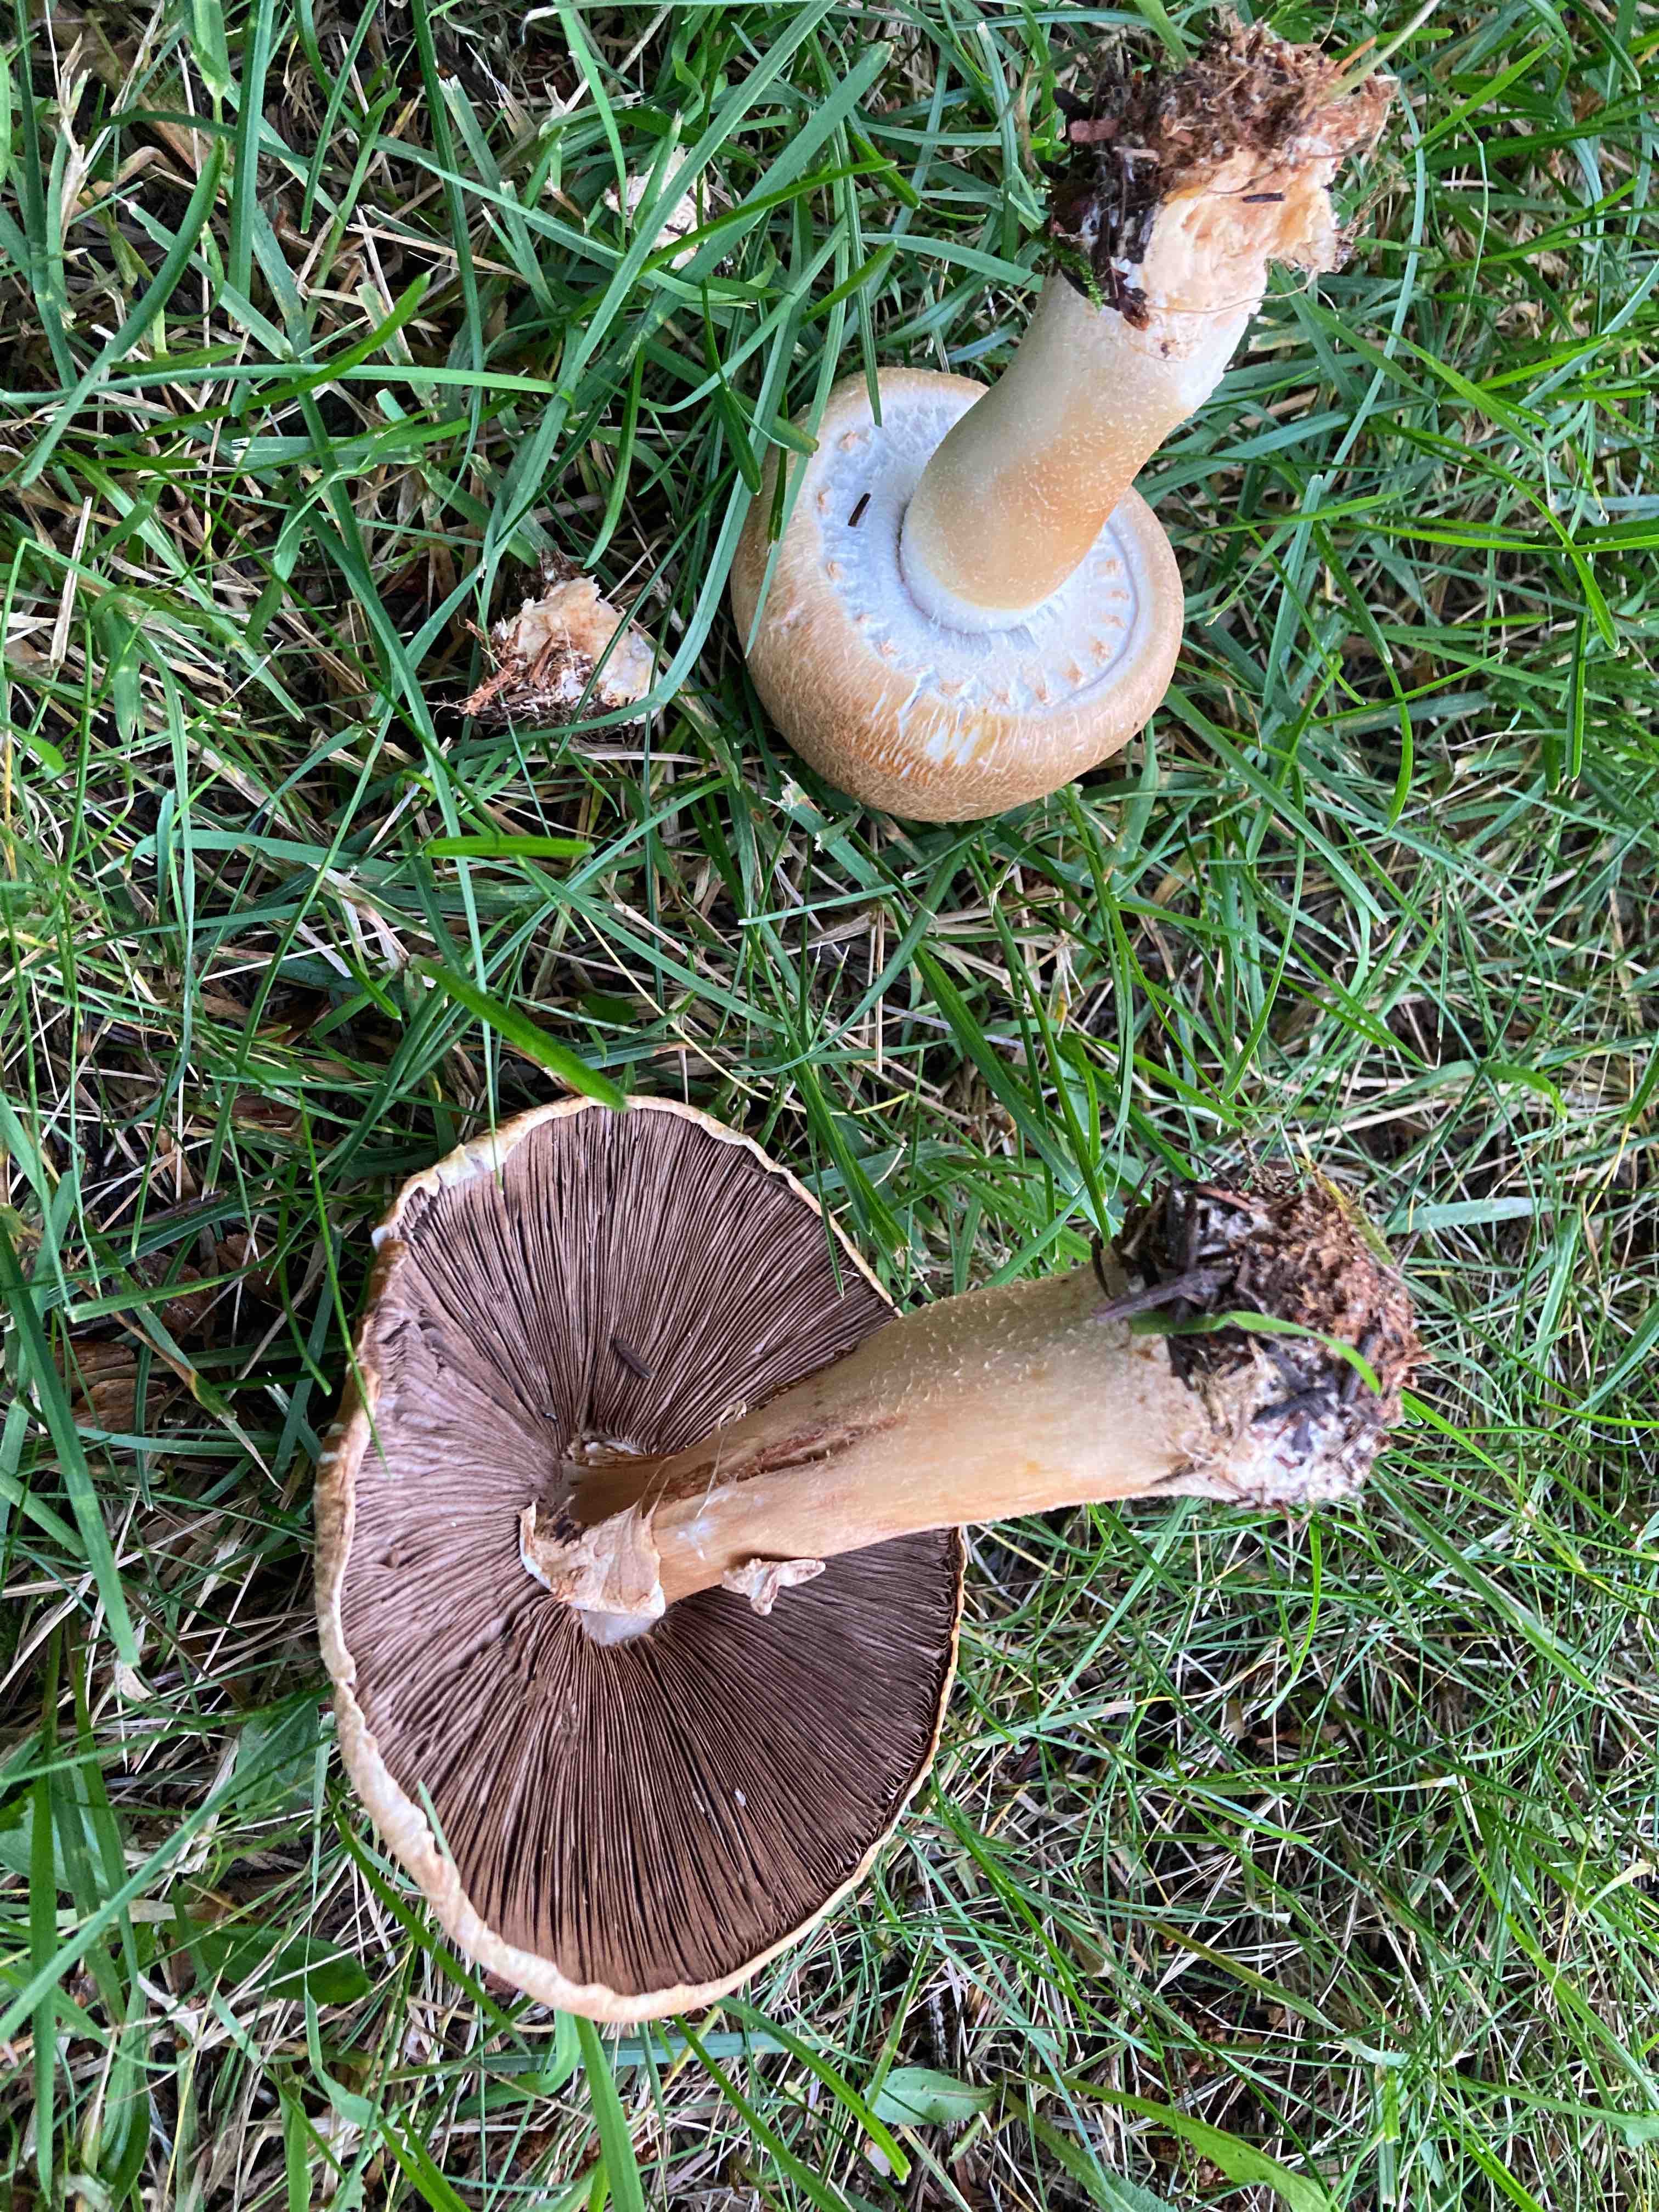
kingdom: Fungi
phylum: Basidiomycota
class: Agaricomycetes
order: Agaricales
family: Agaricaceae
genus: Agaricus
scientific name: Agaricus arvensis
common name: ager-champignon
